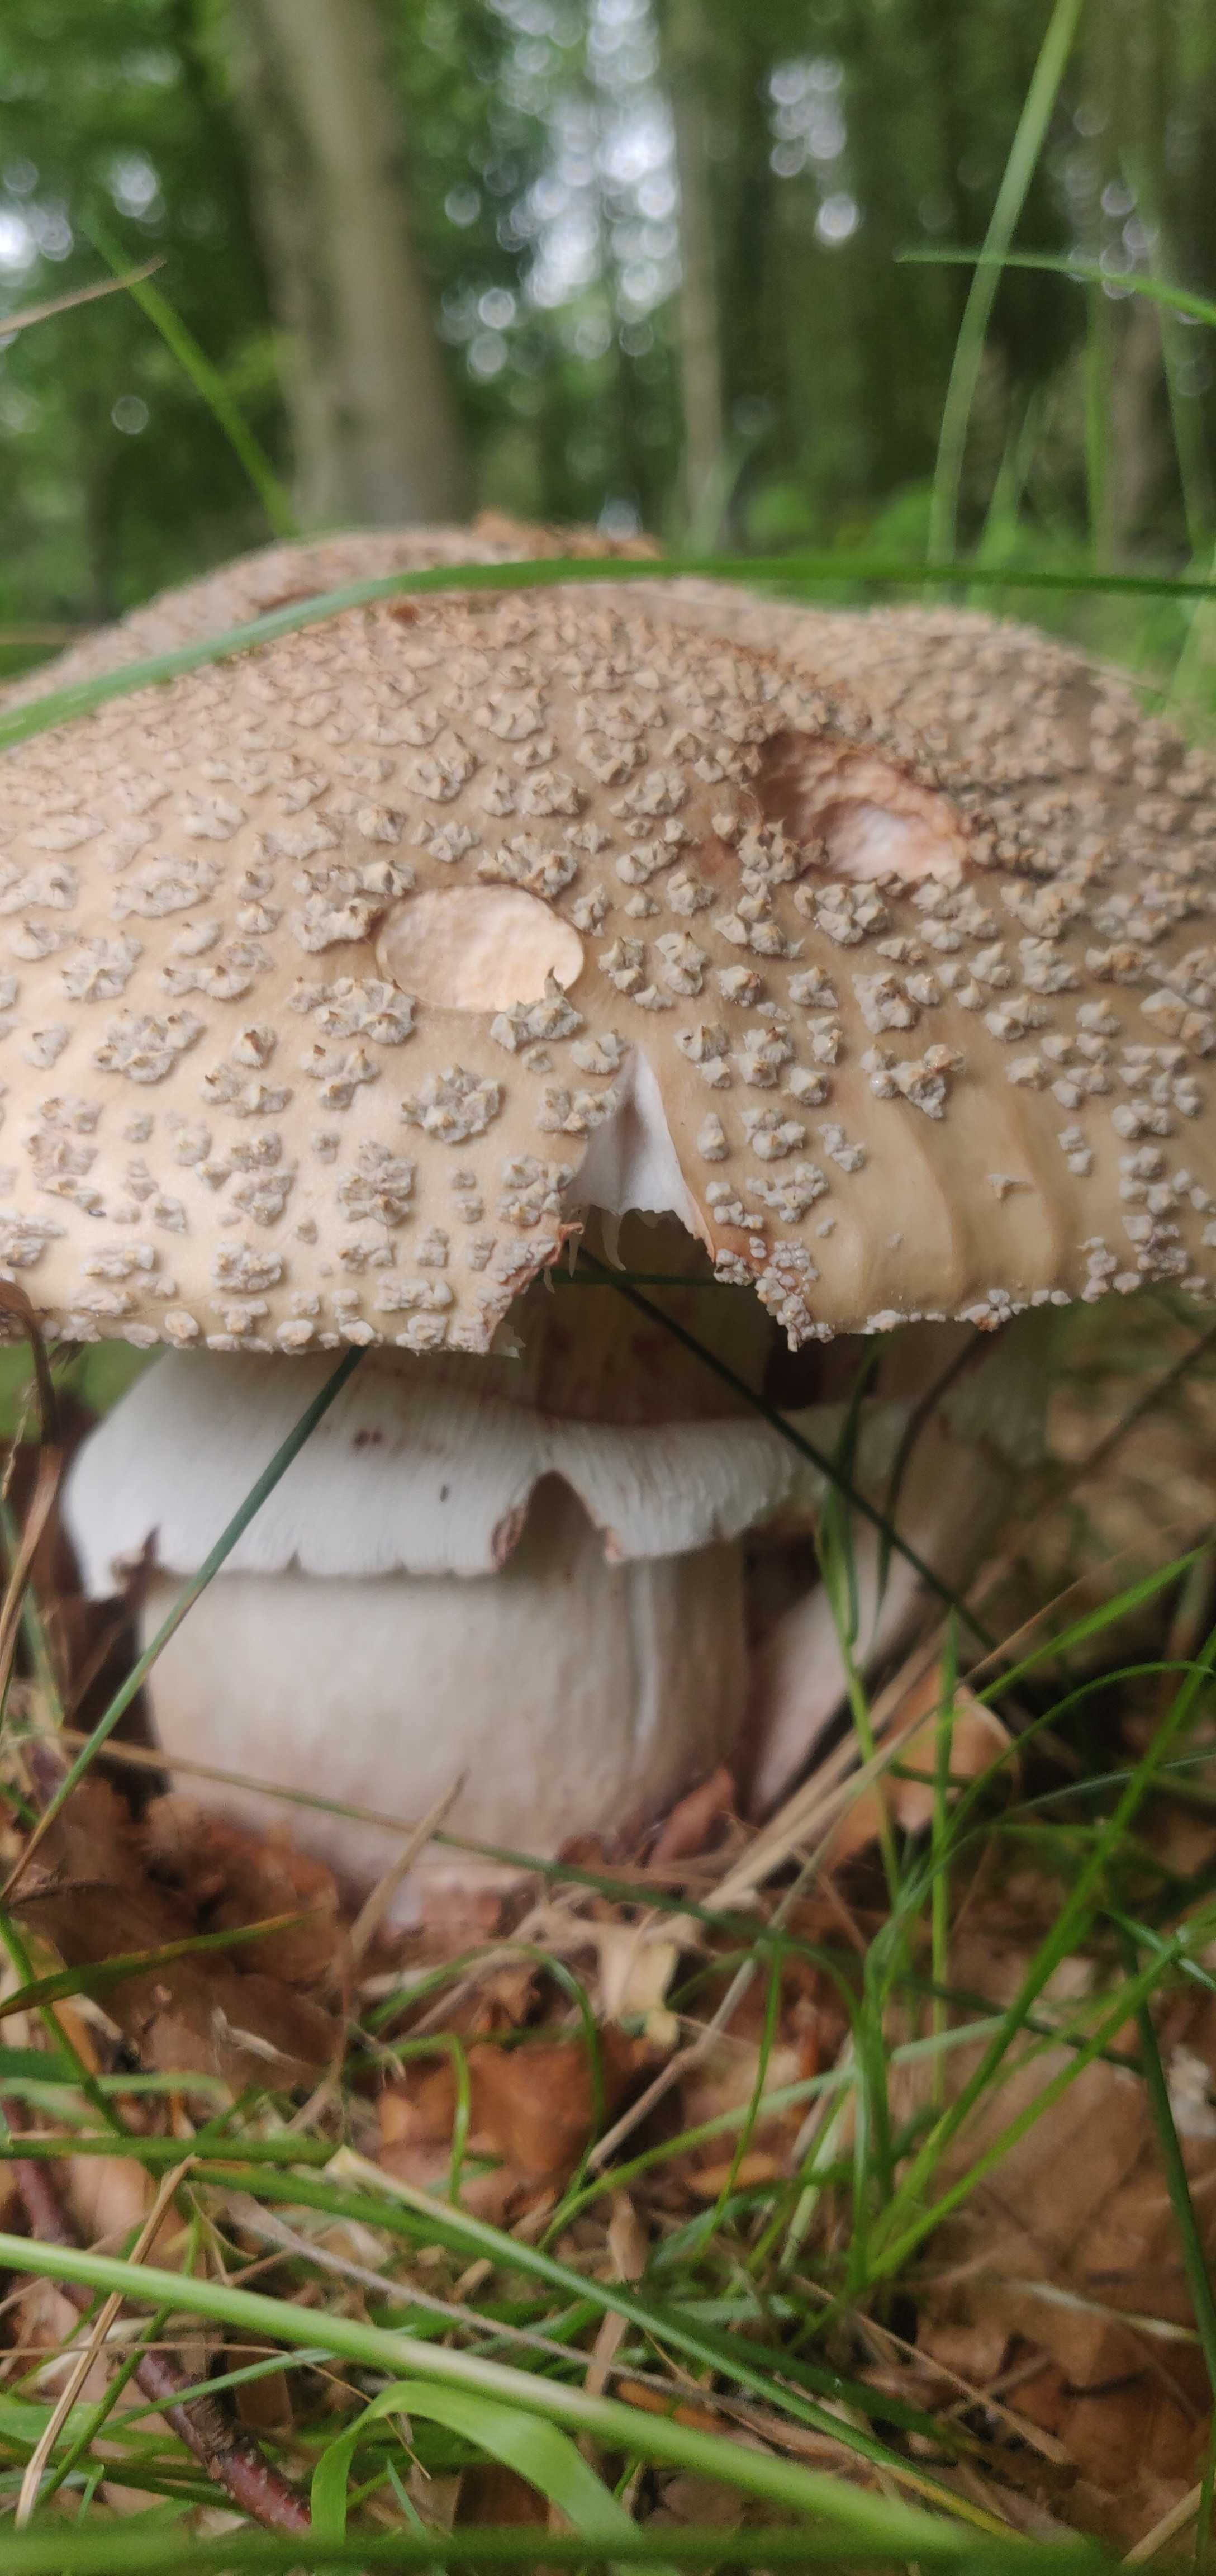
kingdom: Fungi
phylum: Basidiomycota
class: Agaricomycetes
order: Agaricales
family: Amanitaceae
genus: Amanita
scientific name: Amanita rubescens
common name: rødmende fluesvamp
